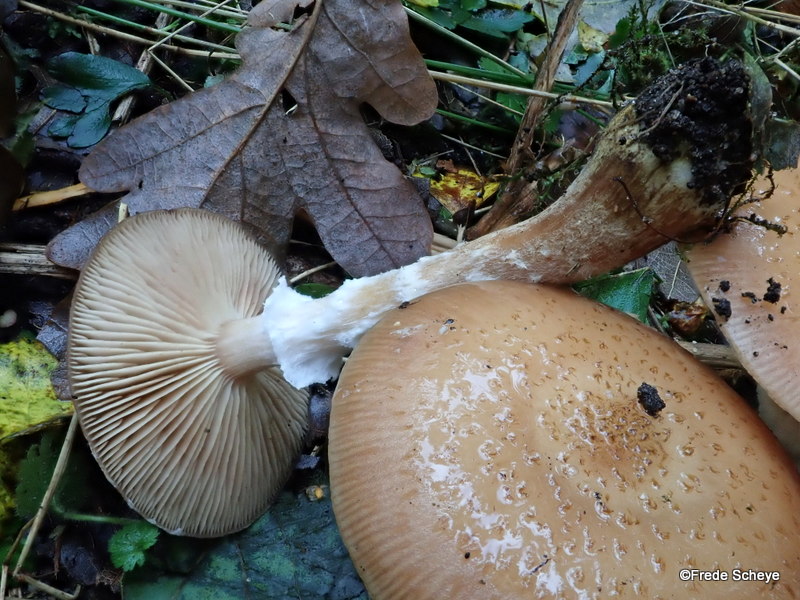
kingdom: Fungi
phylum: Basidiomycota
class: Agaricomycetes
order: Agaricales
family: Physalacriaceae
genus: Armillaria
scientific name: Armillaria lutea
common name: køllestokket honningsvamp
